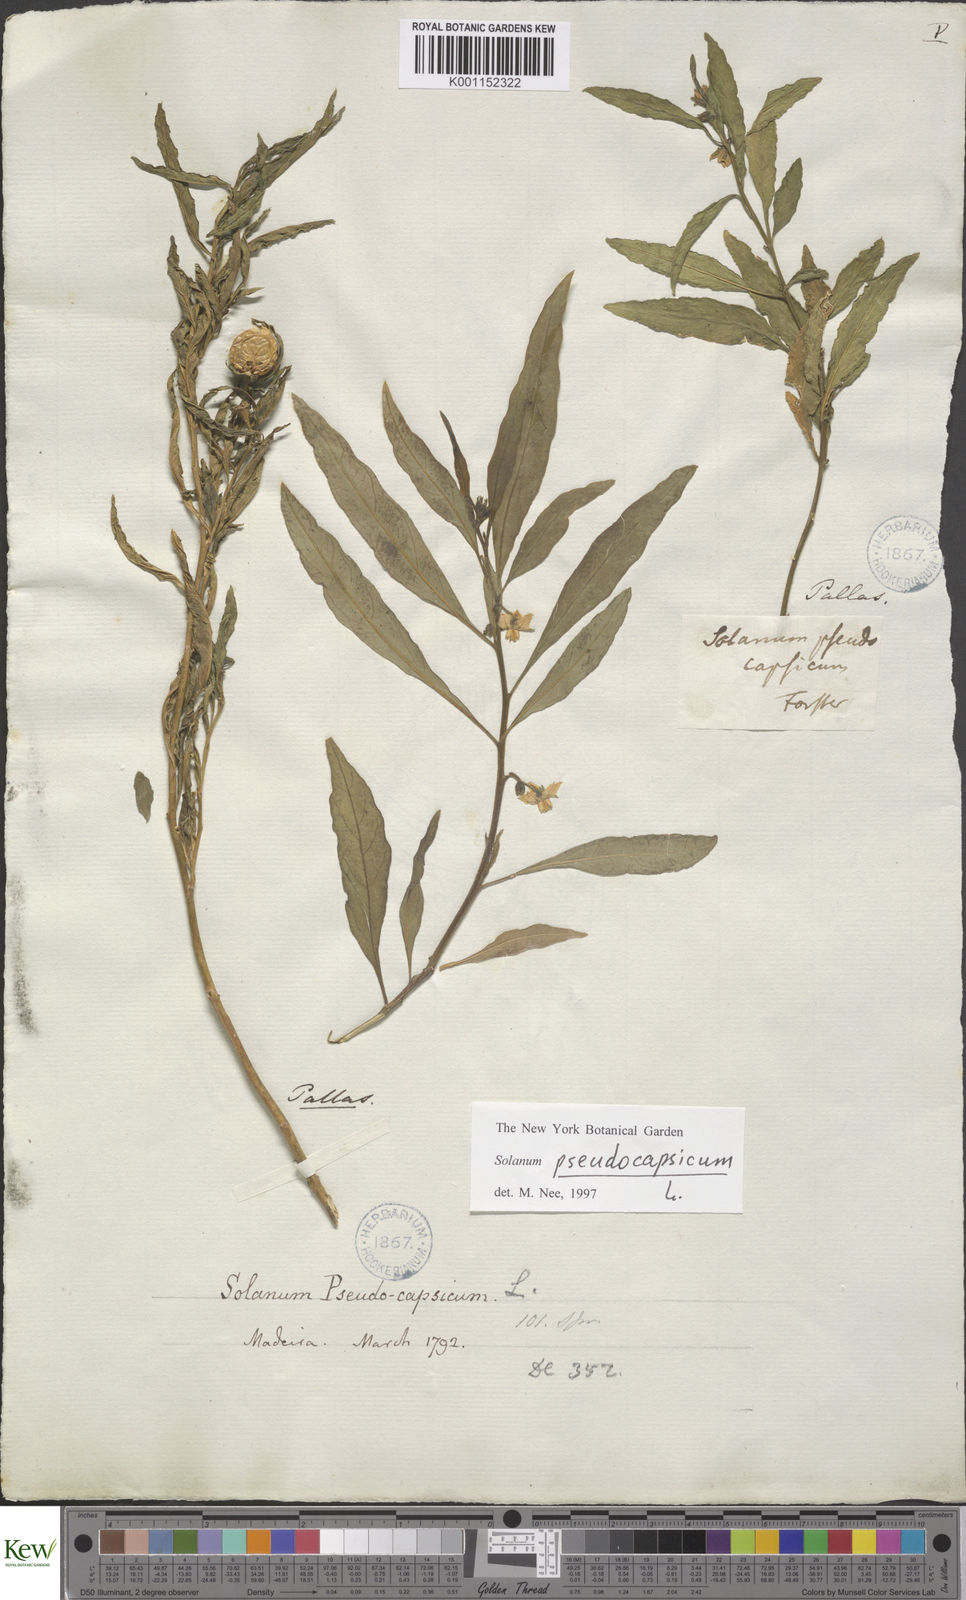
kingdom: Plantae
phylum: Tracheophyta
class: Magnoliopsida
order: Solanales
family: Solanaceae
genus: Solanum
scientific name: Solanum pseudocapsicum
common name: Jerusalem cherry
